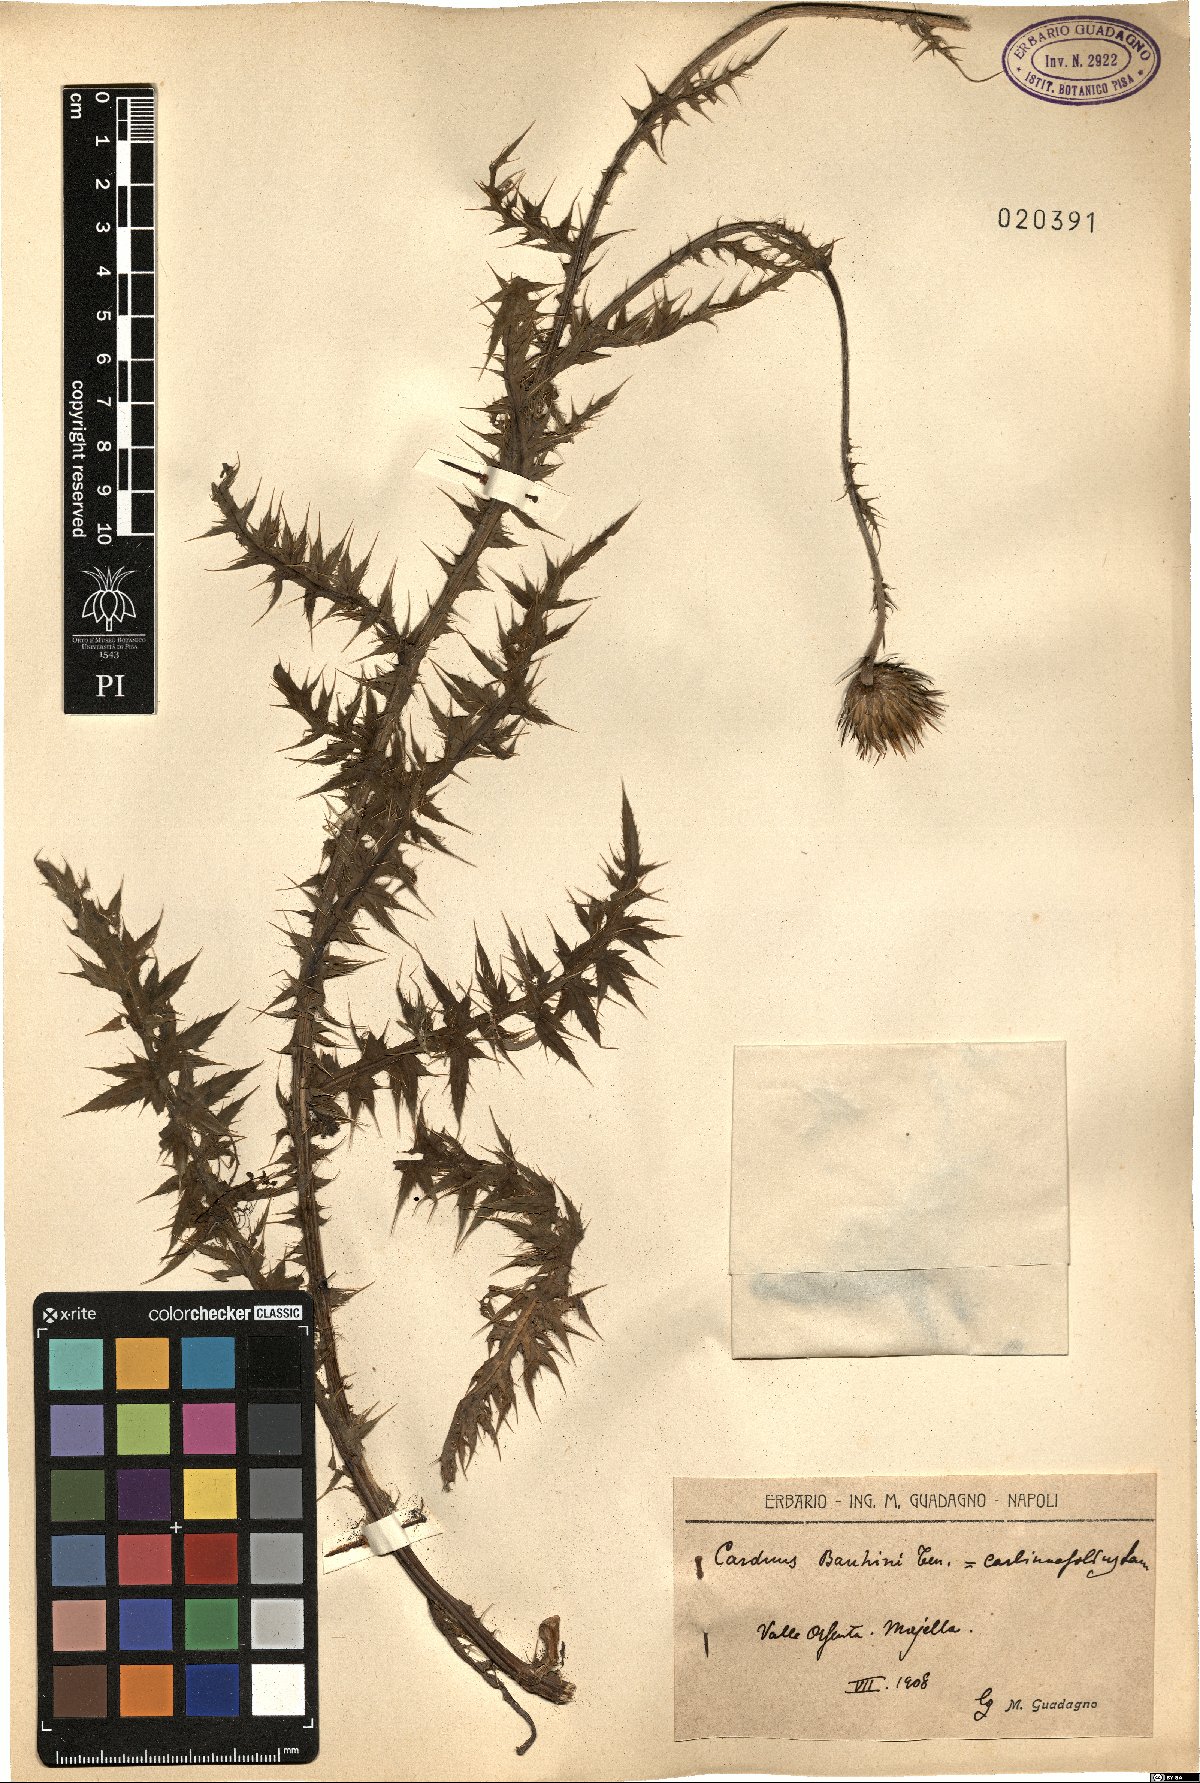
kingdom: Plantae
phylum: Tracheophyta
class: Magnoliopsida
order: Asterales
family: Asteraceae
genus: Carduus
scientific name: Carduus carlinifolius
